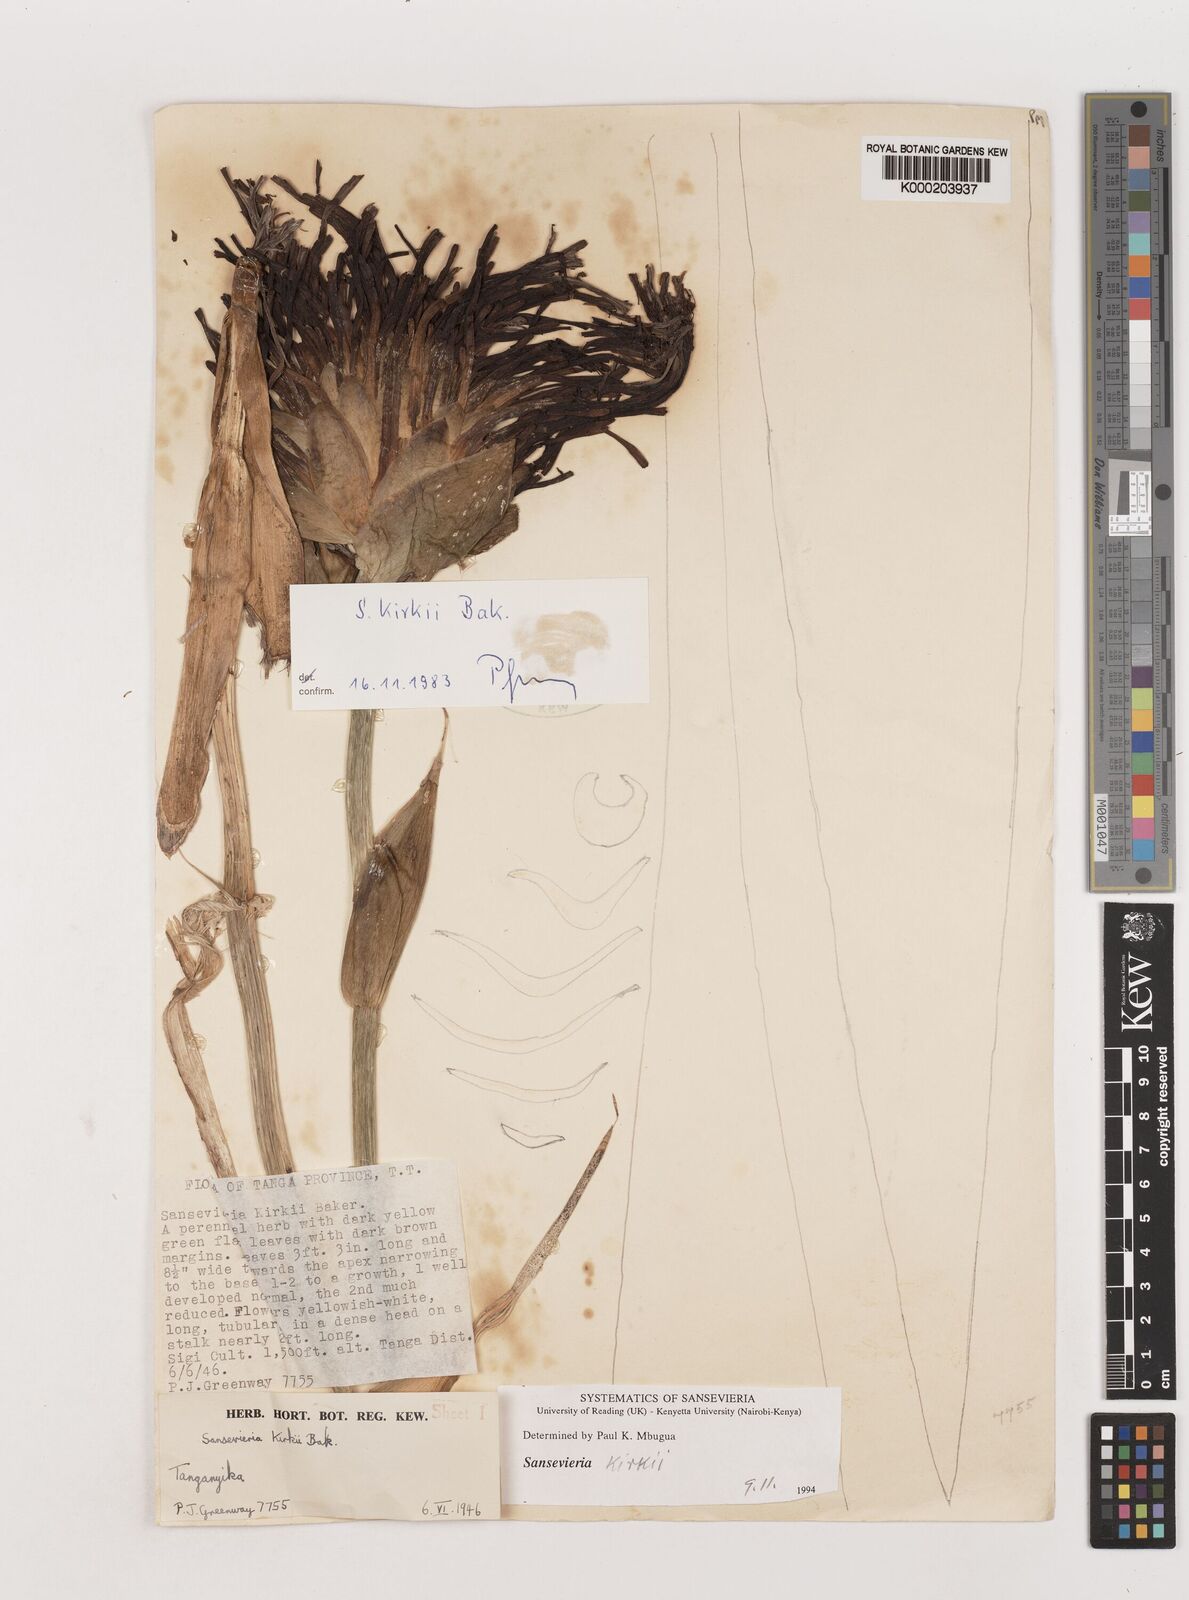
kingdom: Plantae
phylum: Tracheophyta
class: Liliopsida
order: Asparagales
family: Asparagaceae
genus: Dracaena
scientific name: Dracaena pethera
